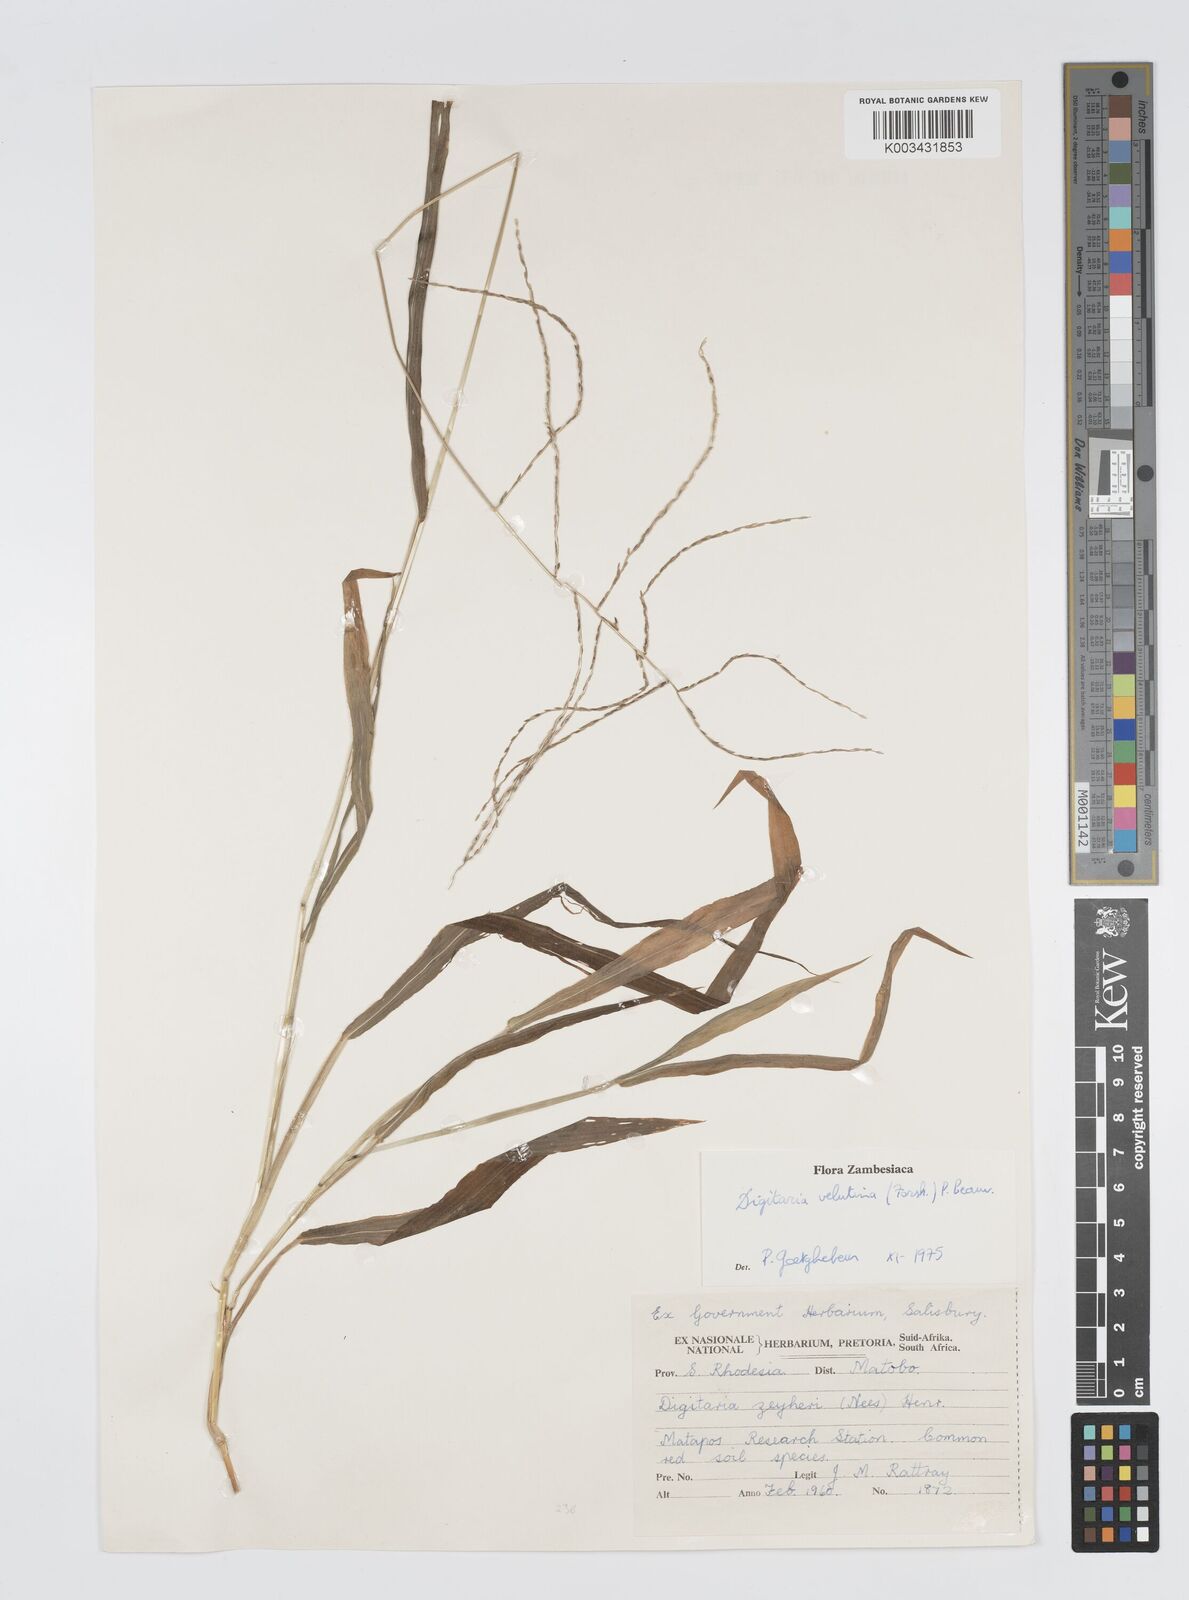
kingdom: Plantae
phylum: Tracheophyta
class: Liliopsida
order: Poales
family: Poaceae
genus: Digitaria
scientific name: Digitaria velutina
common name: Long-plume finger grass
